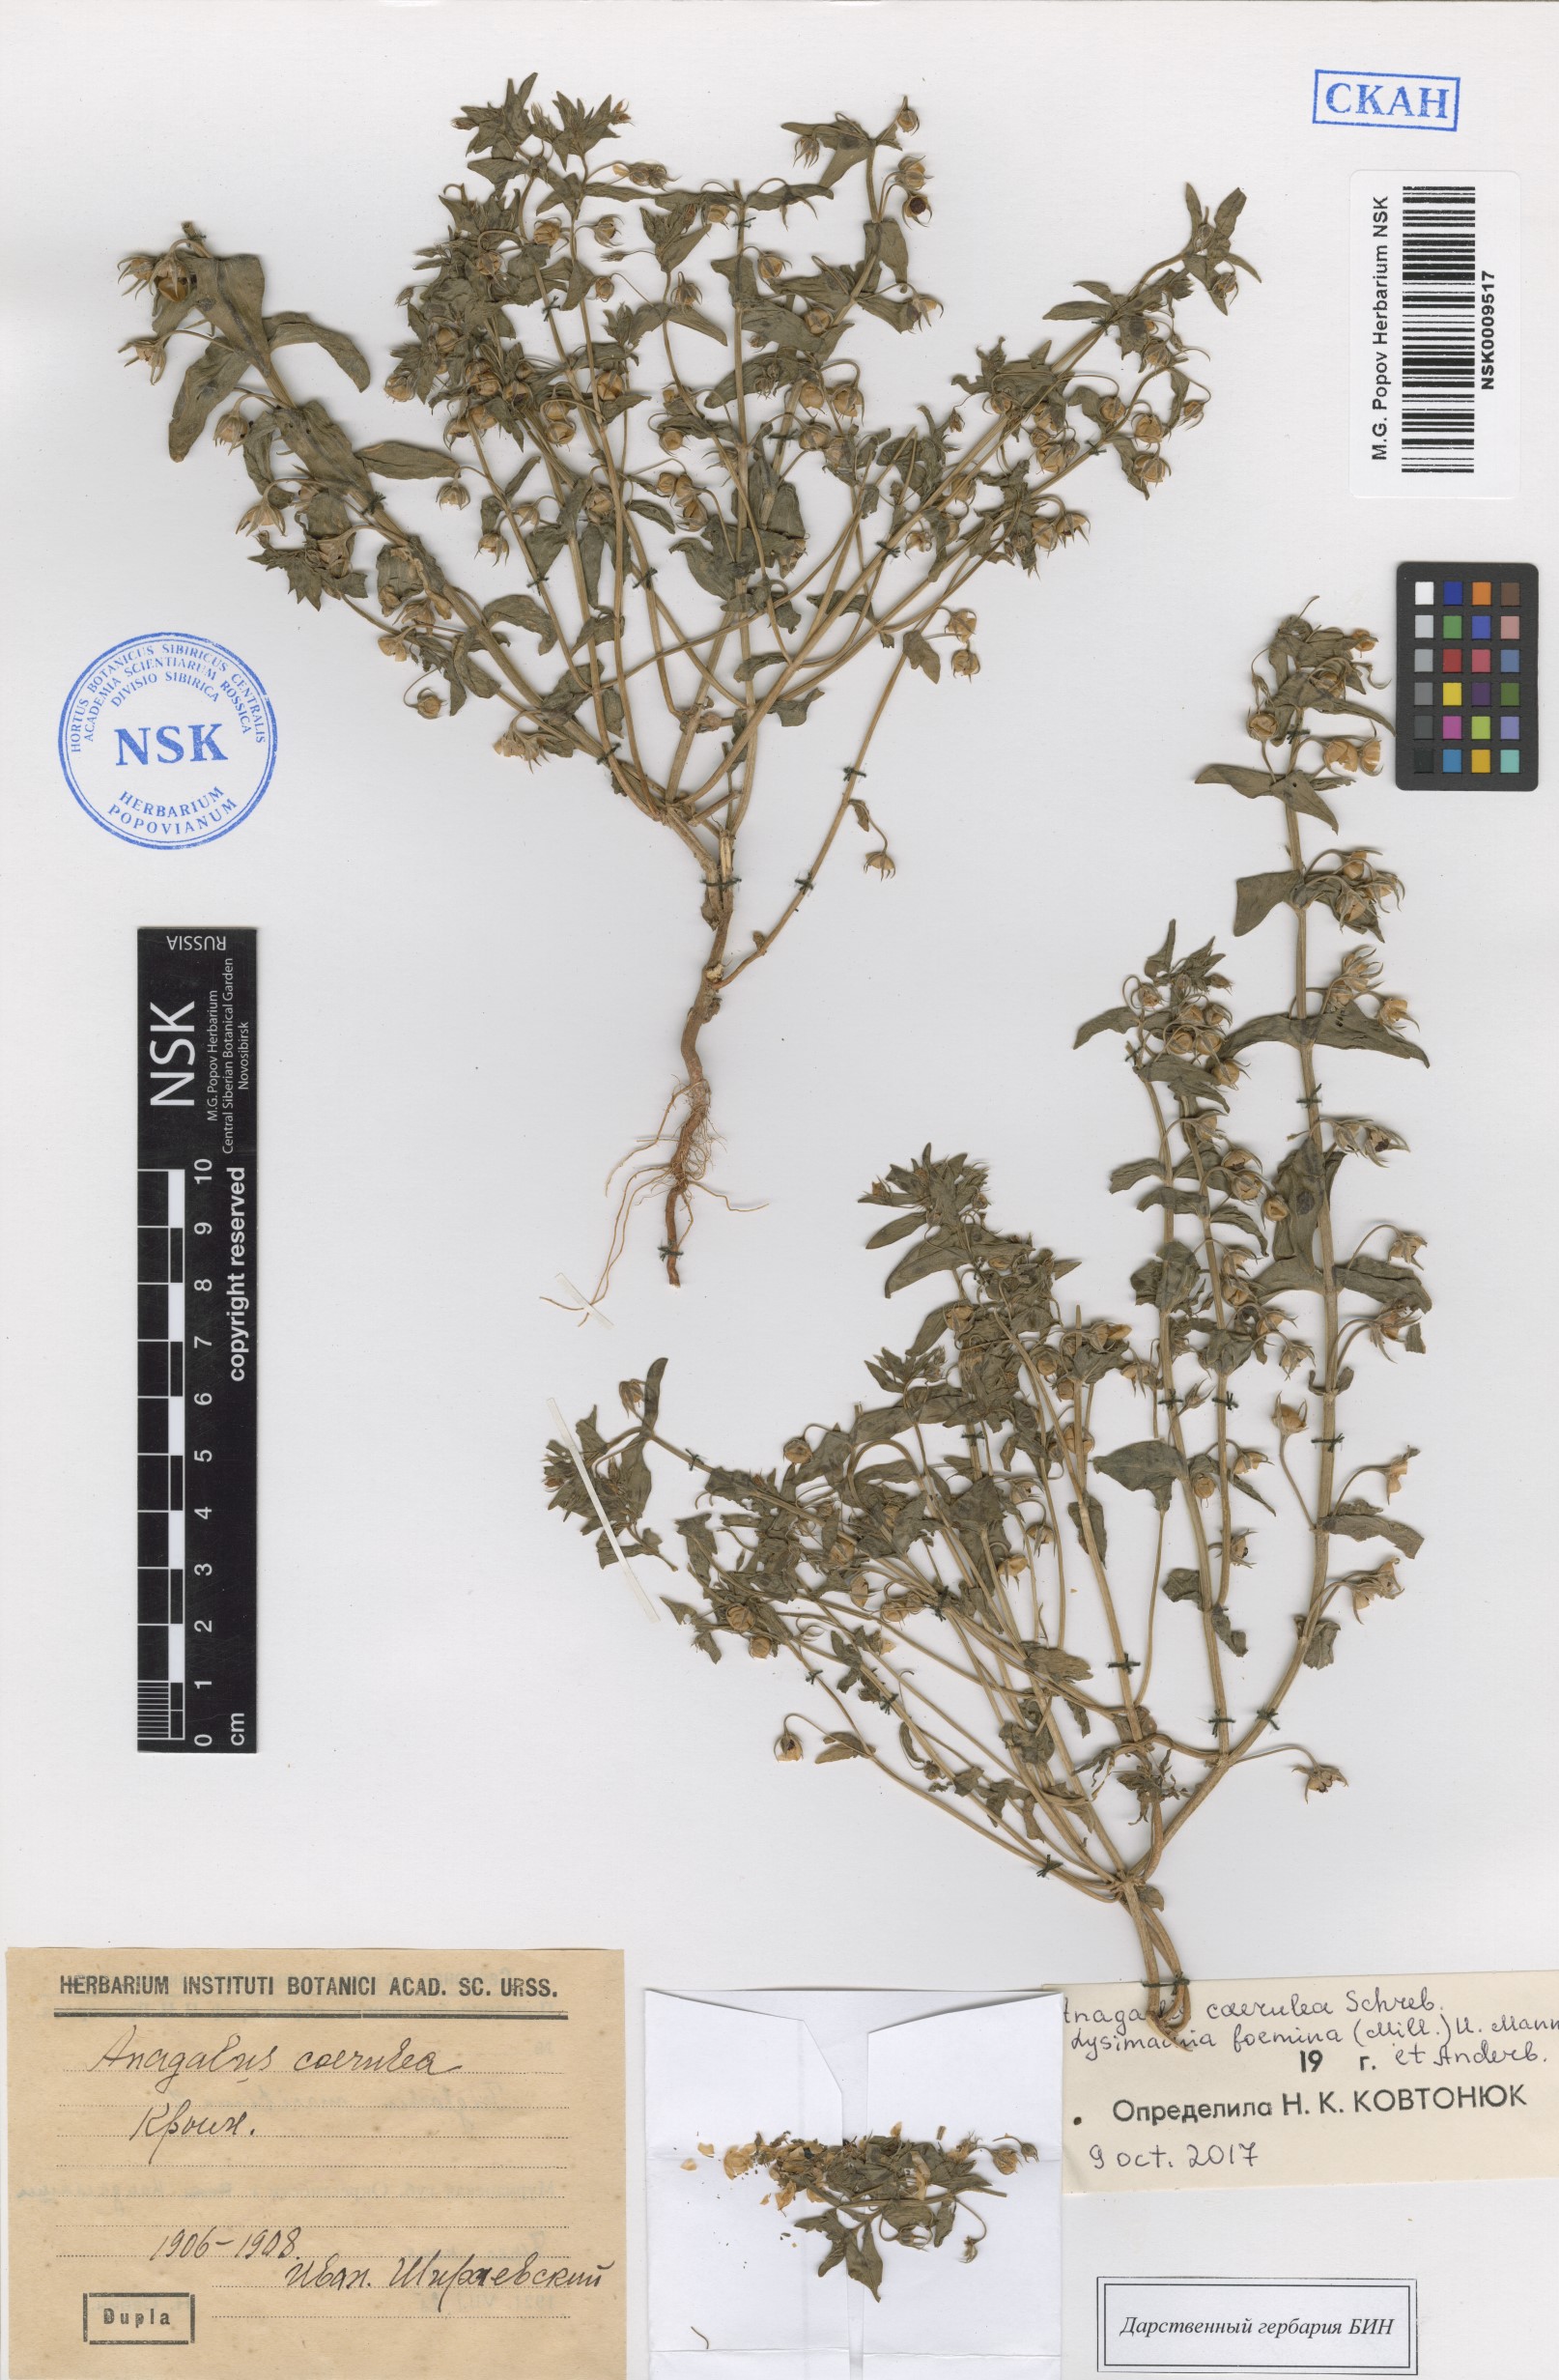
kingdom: Plantae
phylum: Tracheophyta
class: Magnoliopsida
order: Ericales
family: Primulaceae
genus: Lysimachia
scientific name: Lysimachia loeflingii
